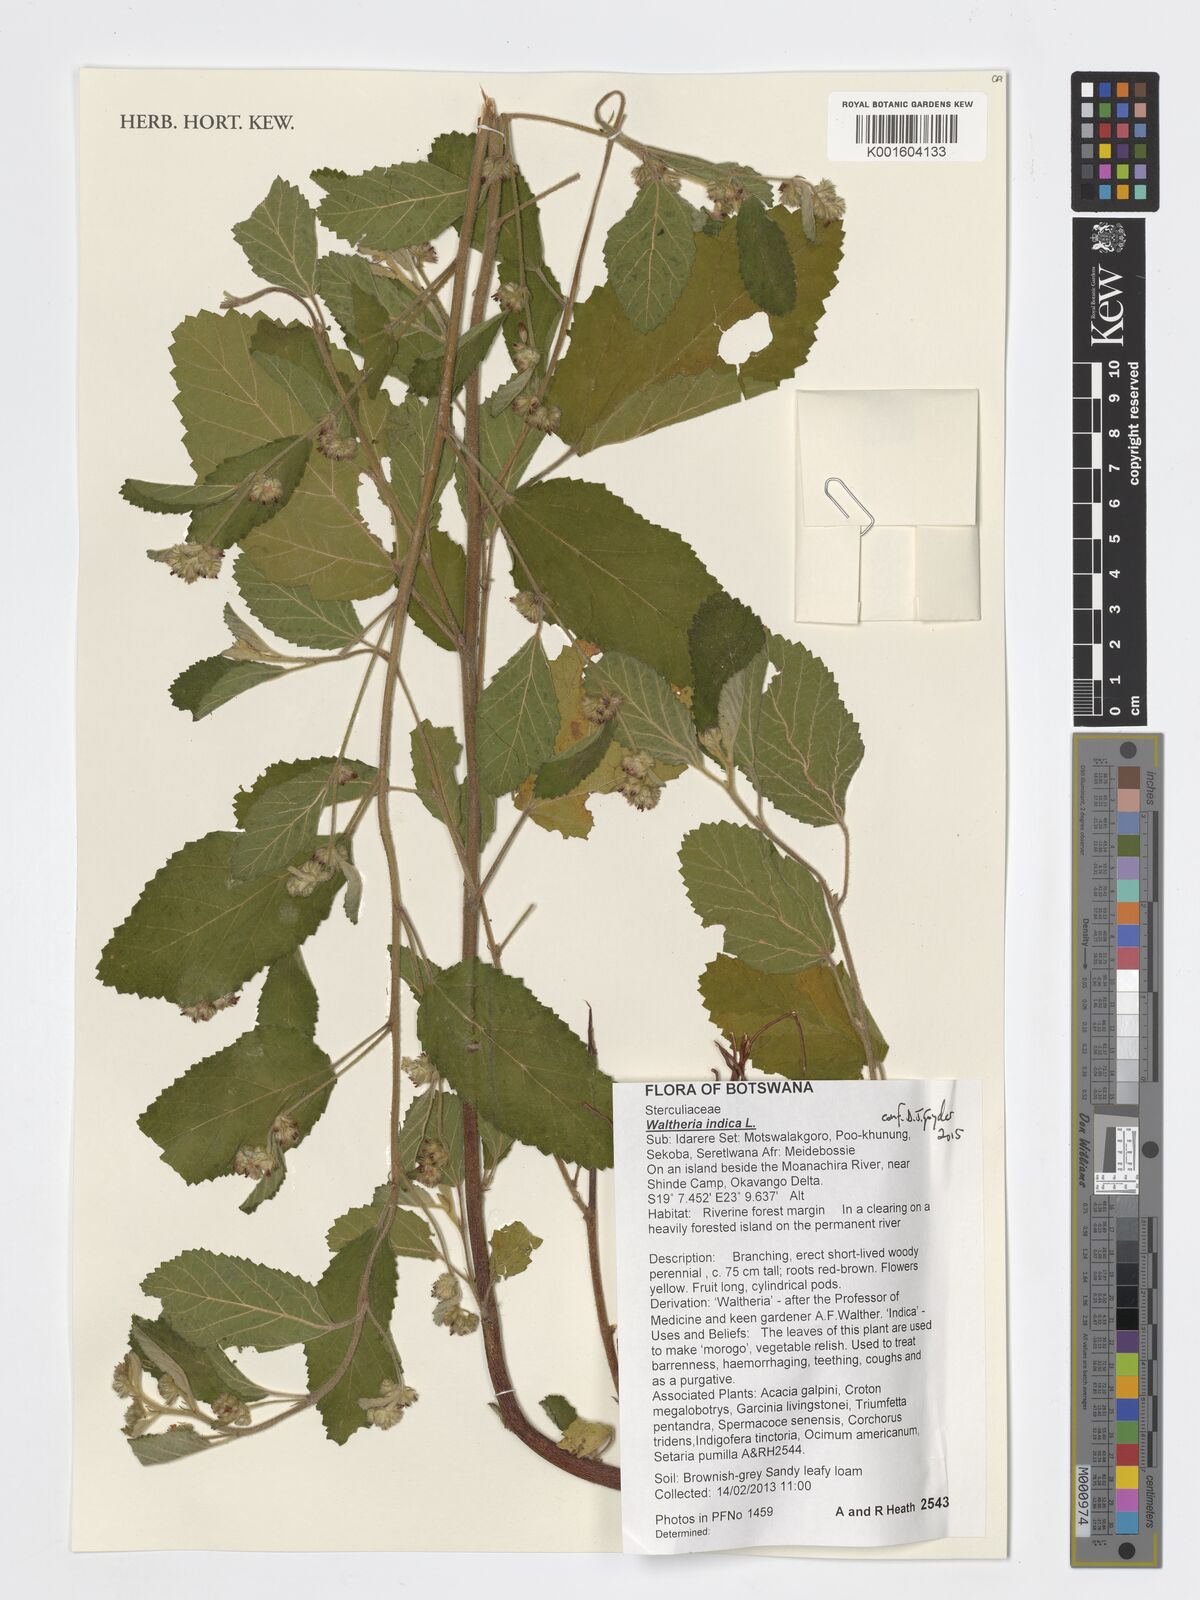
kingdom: Plantae
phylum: Tracheophyta
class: Magnoliopsida
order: Malvales
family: Malvaceae
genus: Waltheria
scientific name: Waltheria indica
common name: Leather-coat
